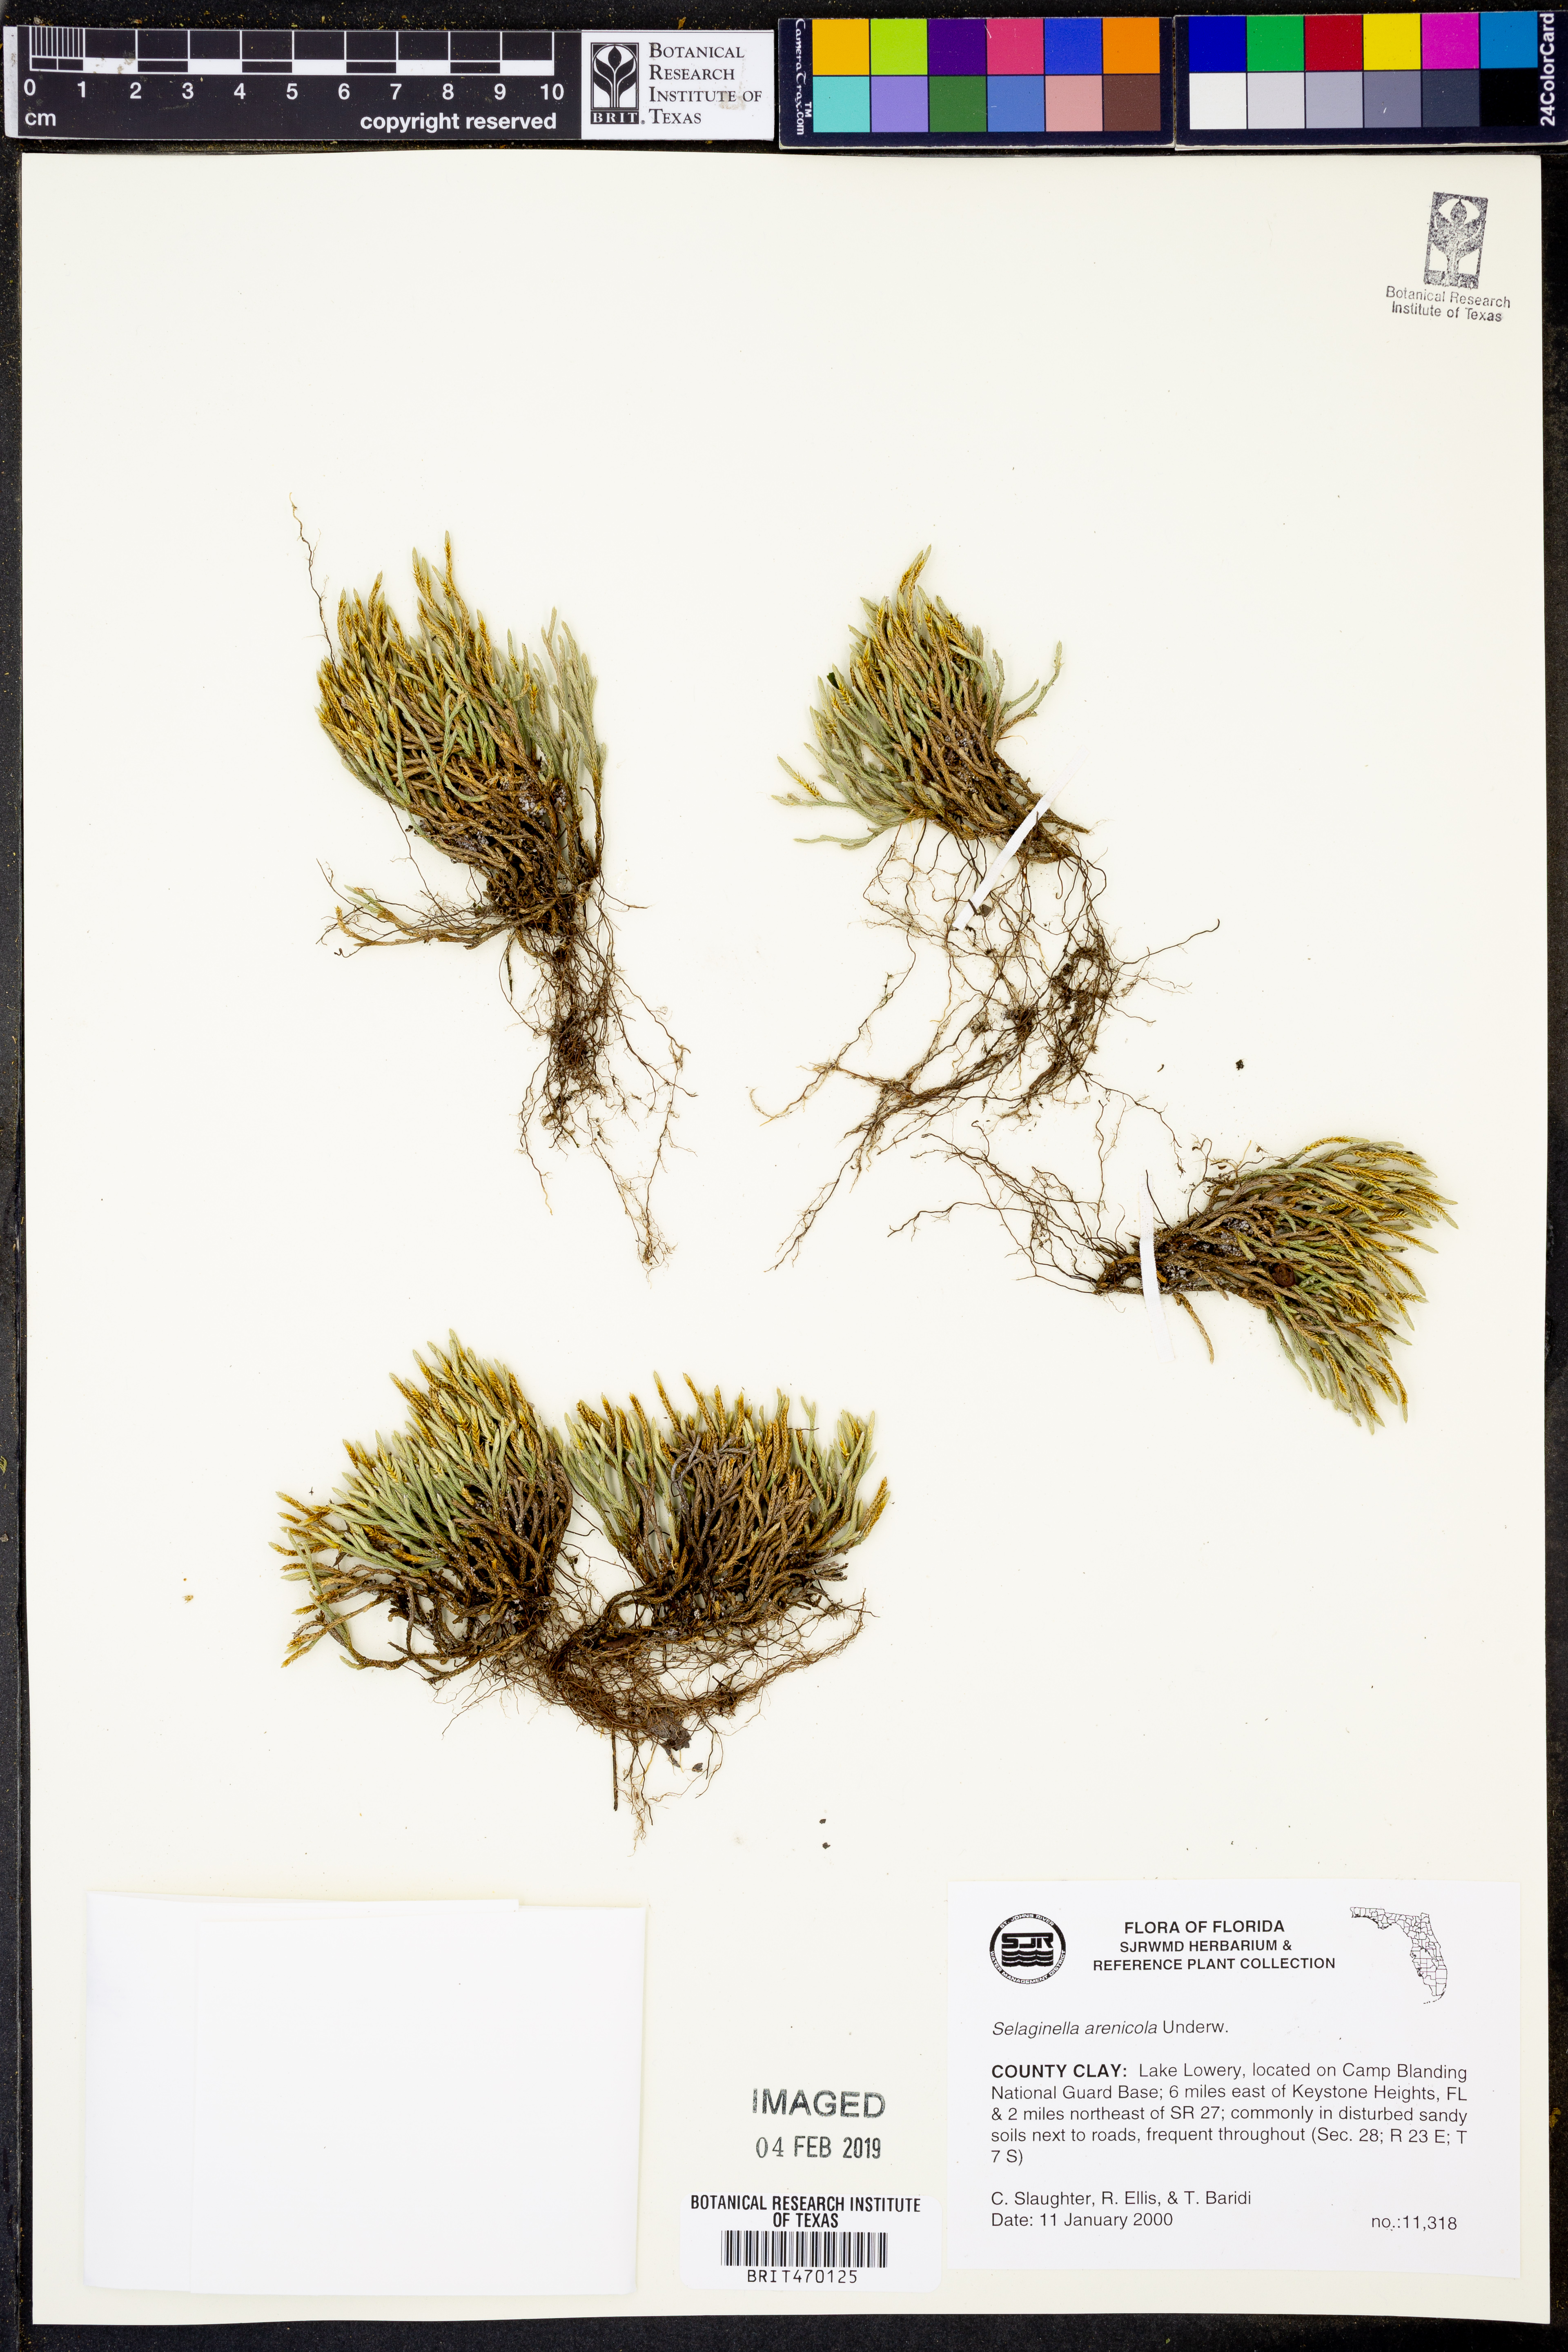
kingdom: Plantae
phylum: Tracheophyta
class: Lycopodiopsida
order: Selaginellales
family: Selaginellaceae
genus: Selaginella
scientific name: Selaginella arenicola
